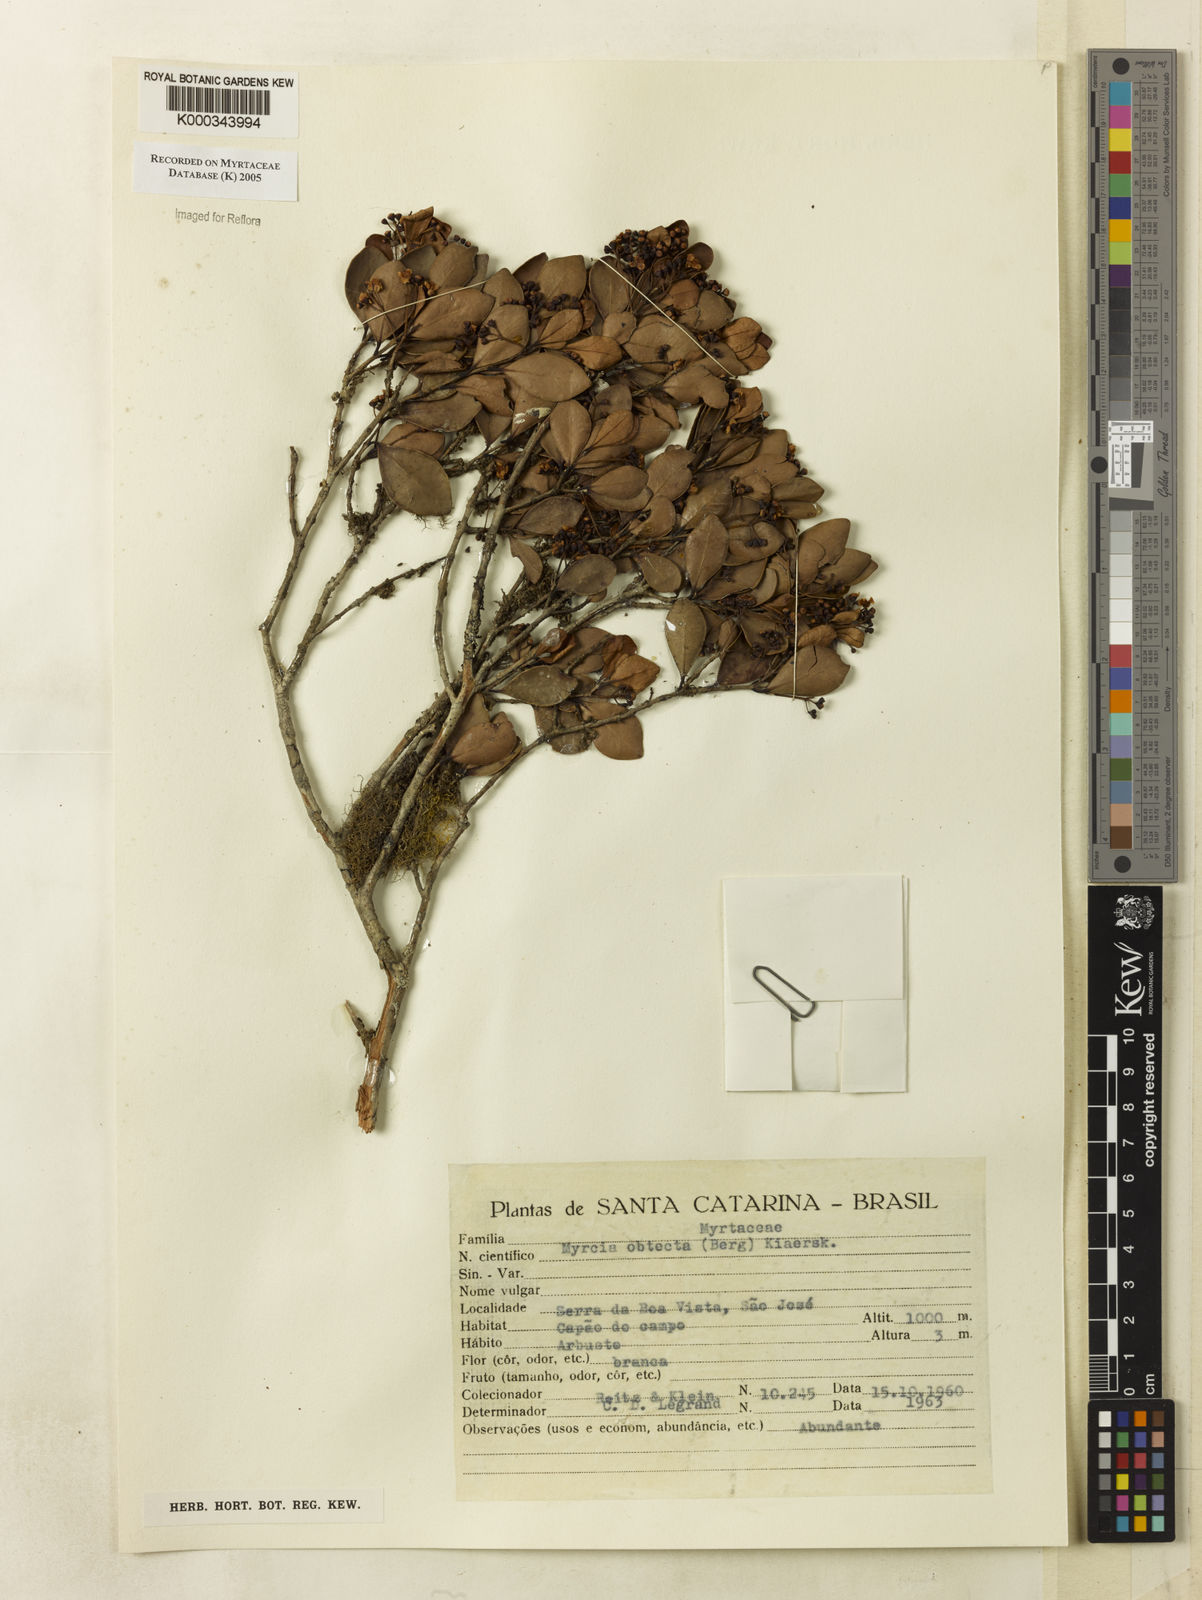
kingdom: Plantae
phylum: Tracheophyta
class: Magnoliopsida
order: Myrtales
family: Myrtaceae
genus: Myrcia
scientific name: Myrcia guianensis
